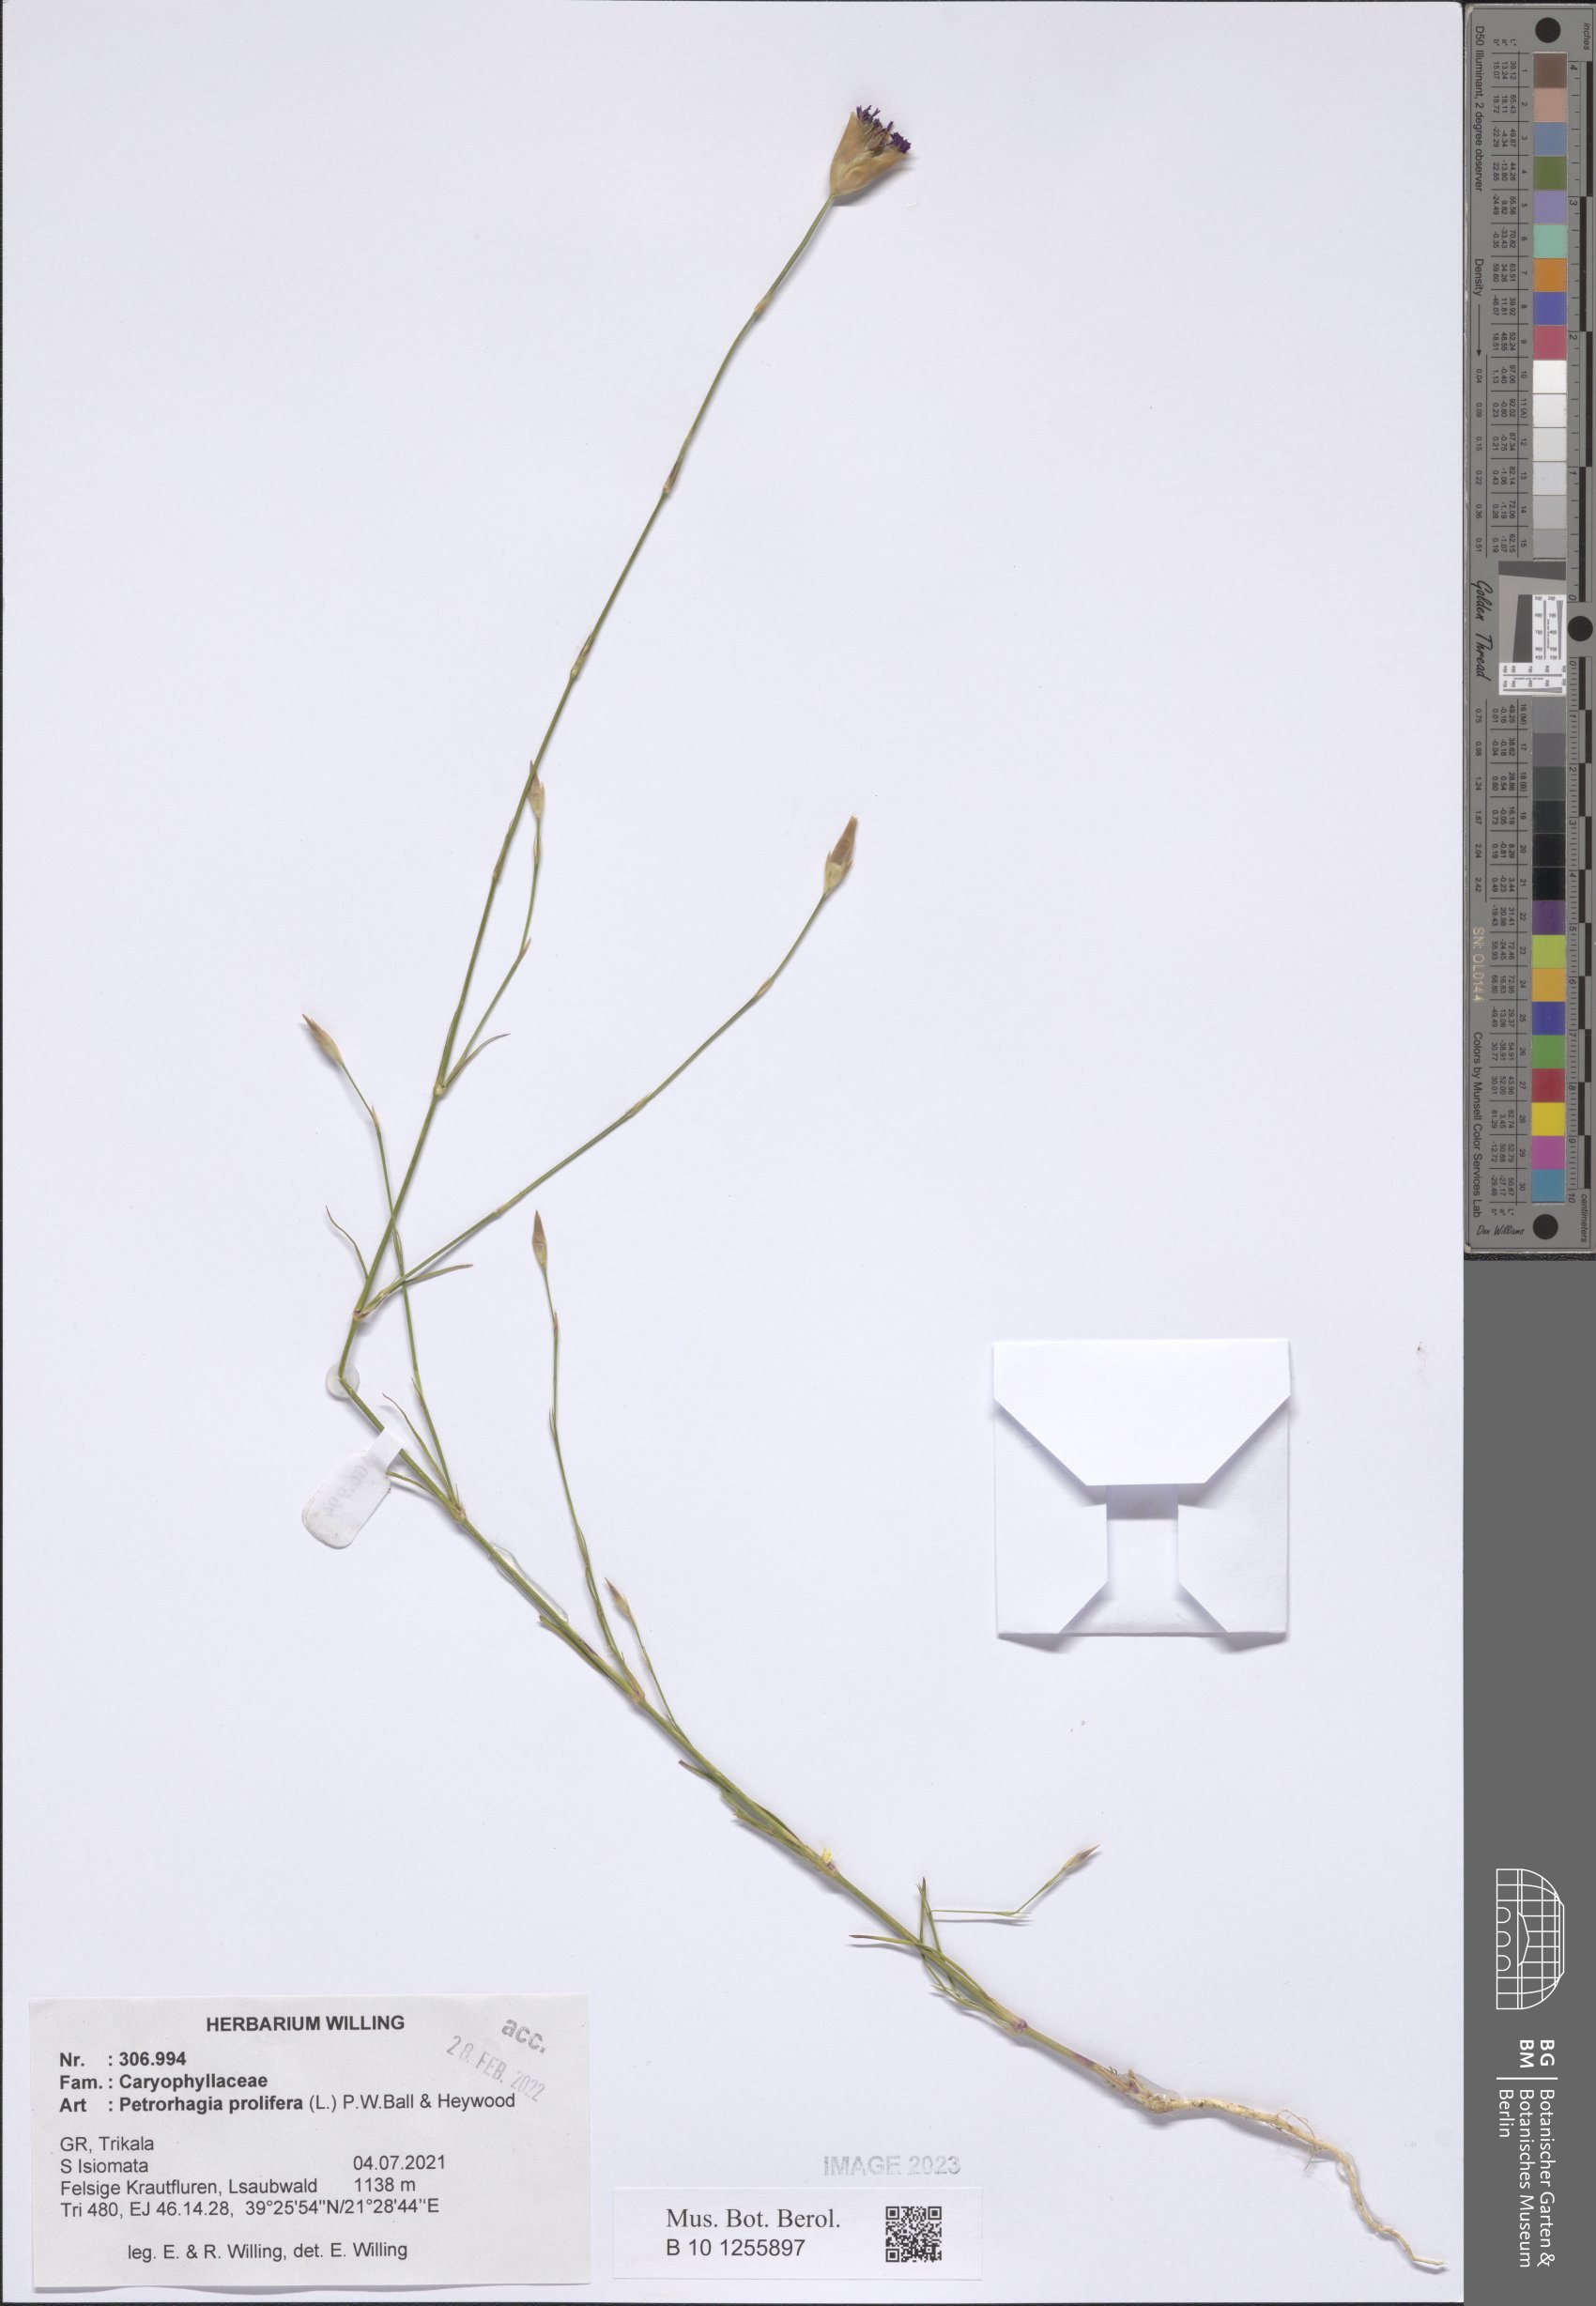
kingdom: Plantae
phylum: Tracheophyta
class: Magnoliopsida
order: Caryophyllales
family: Caryophyllaceae
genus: Petrorhagia
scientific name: Petrorhagia prolifera
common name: Proliferous pink
